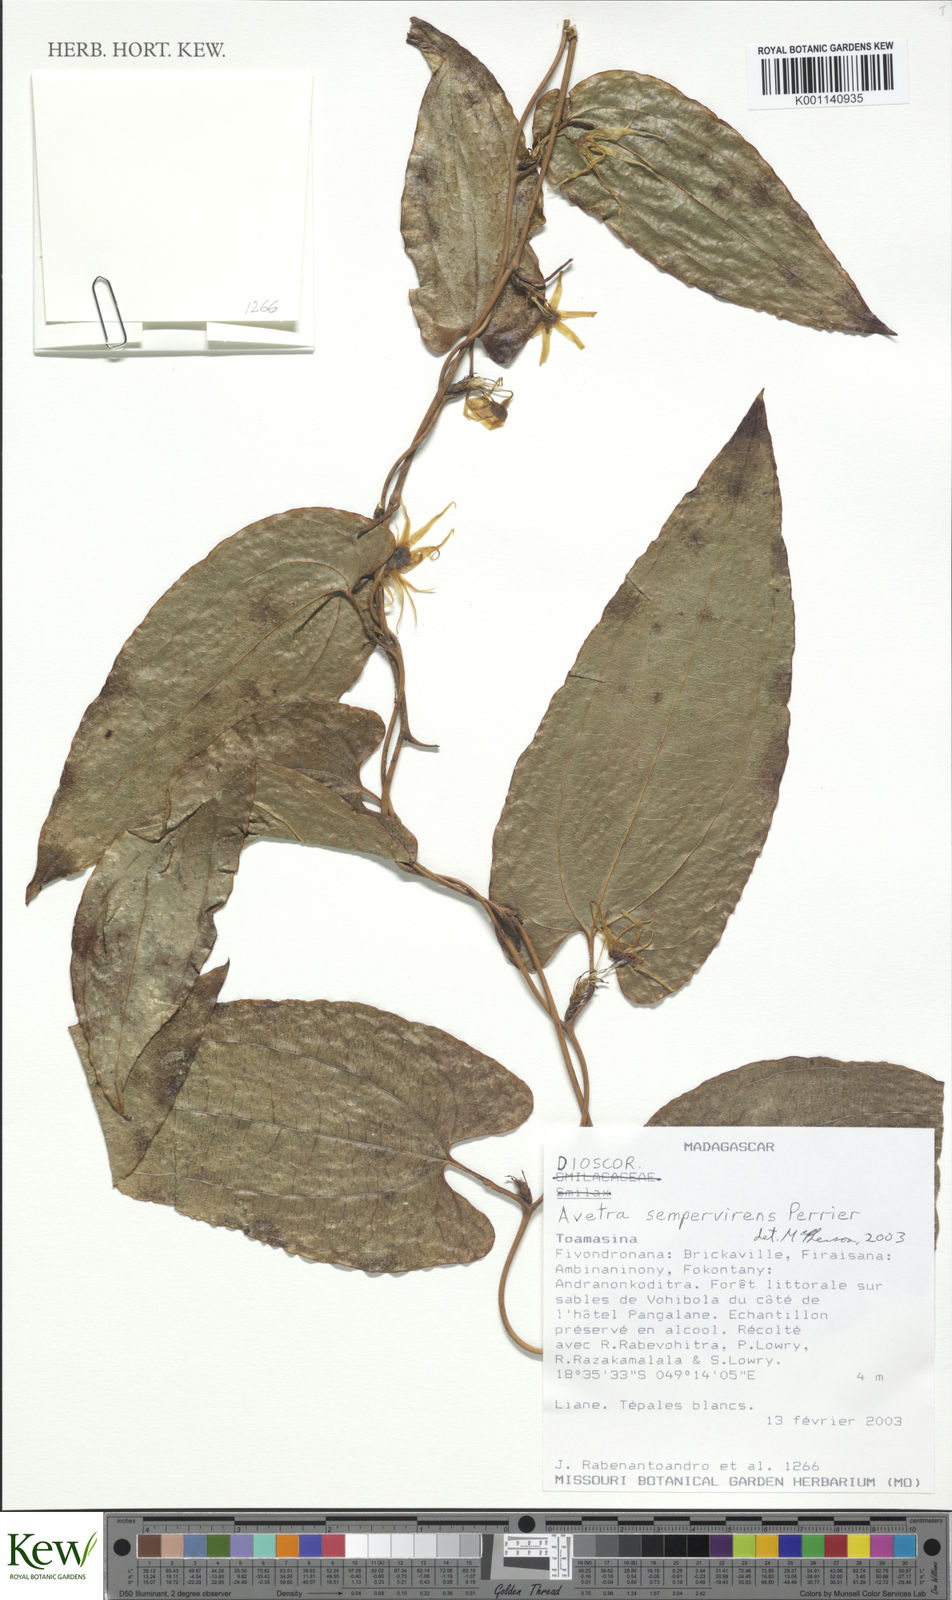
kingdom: Plantae
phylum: Tracheophyta
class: Liliopsida
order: Dioscoreales
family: Dioscoreaceae
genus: Trichopus
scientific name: Trichopus sempervirens
